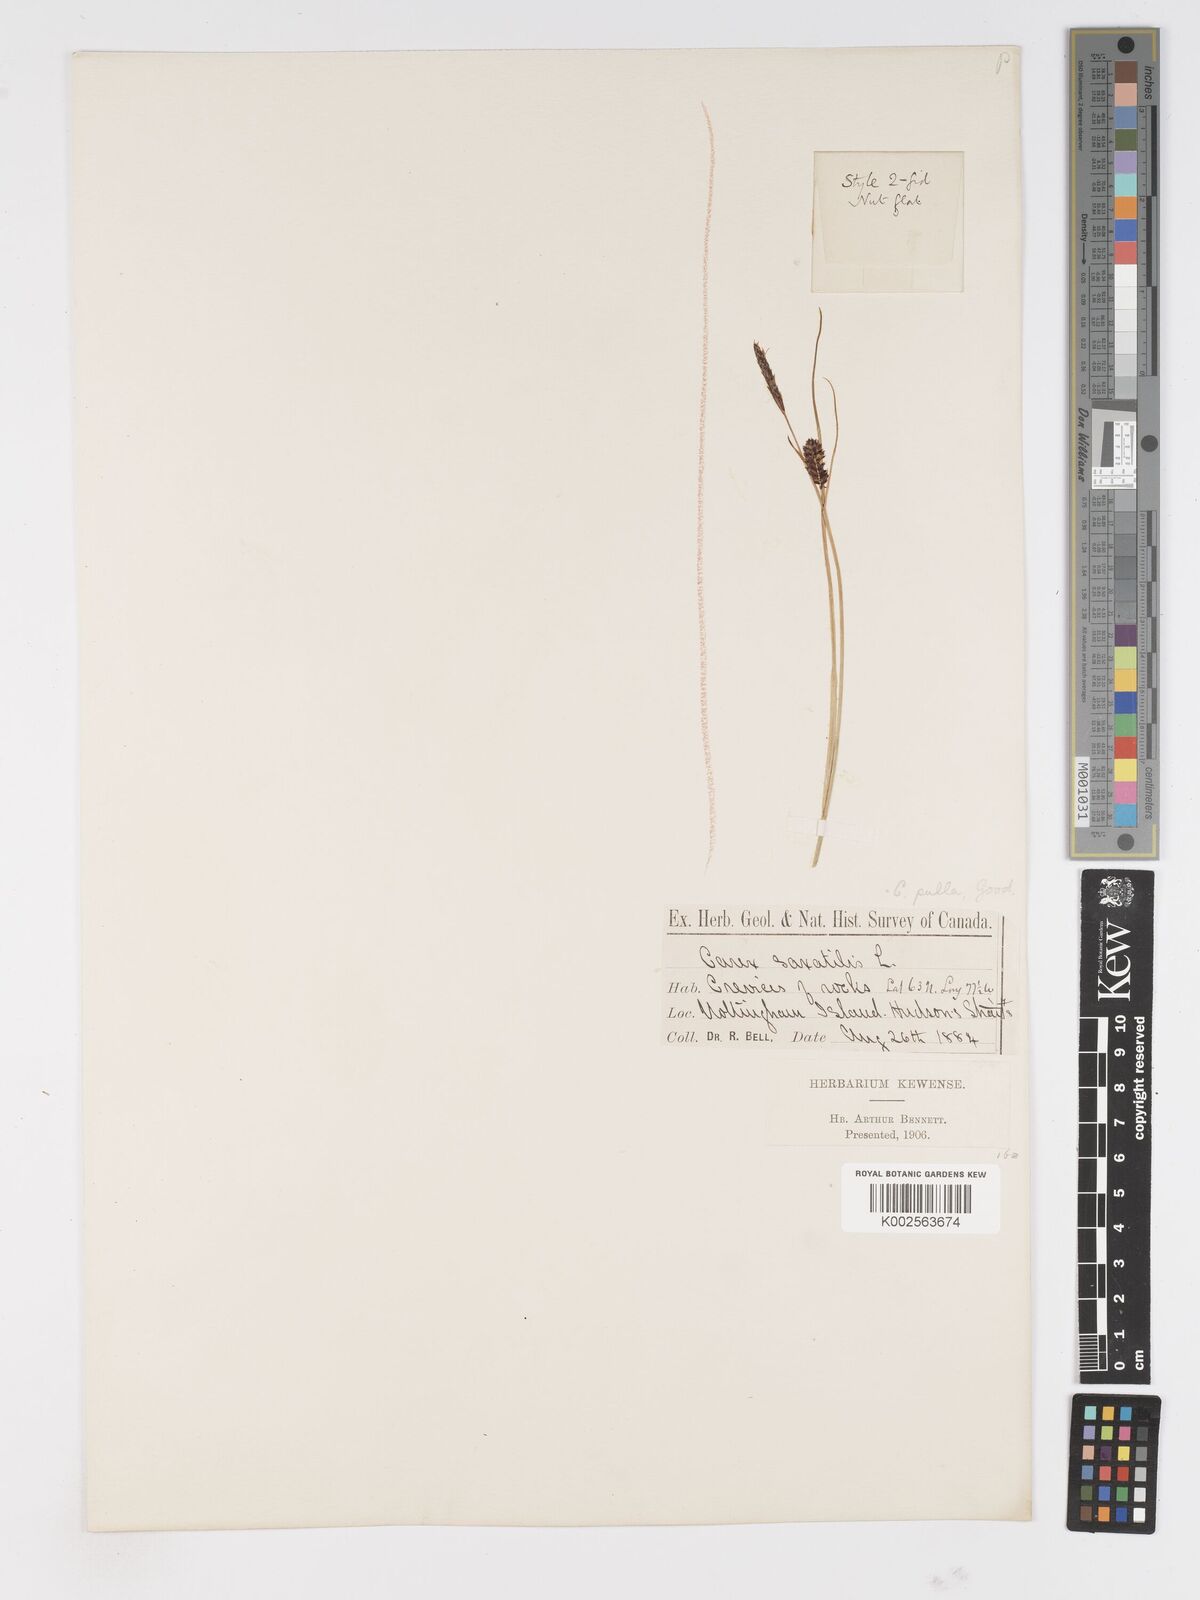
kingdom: Plantae
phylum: Tracheophyta
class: Liliopsida
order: Poales
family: Cyperaceae
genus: Carex
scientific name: Carex saxatilis
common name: Russet sedge
